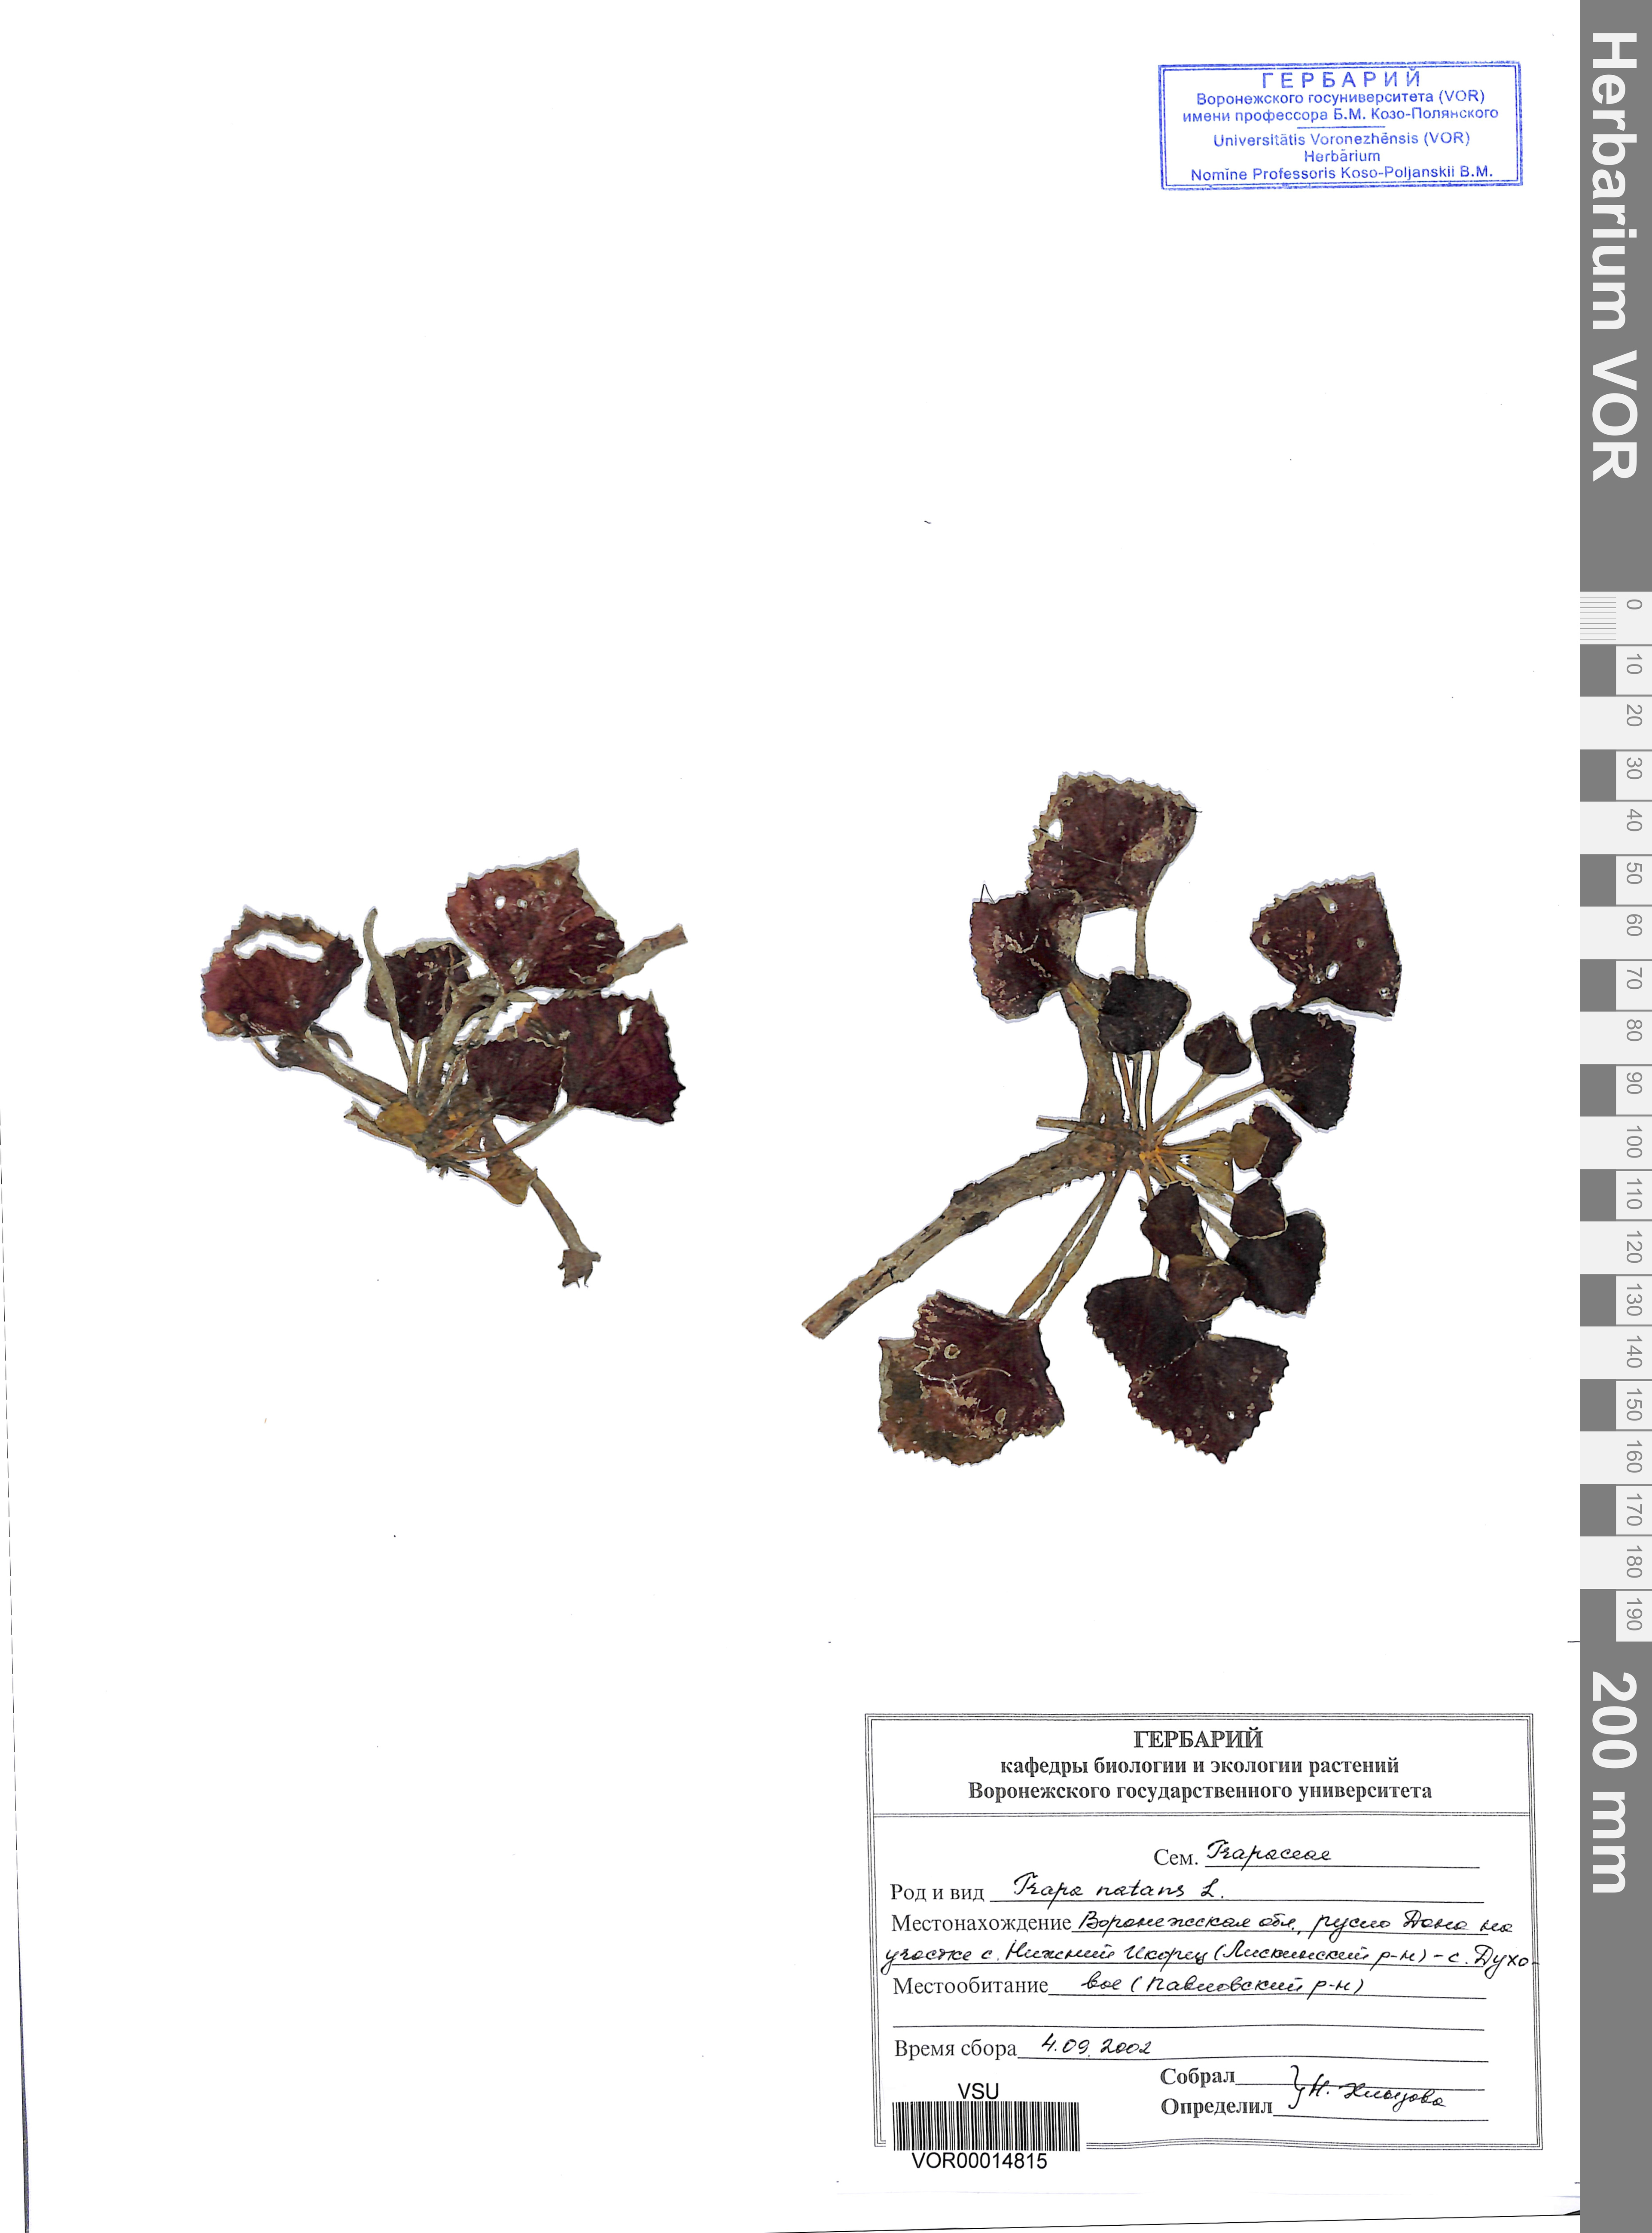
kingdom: Plantae
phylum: Tracheophyta
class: Magnoliopsida
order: Myrtales
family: Lythraceae
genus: Trapa
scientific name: Trapa natans
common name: Water chestnut
